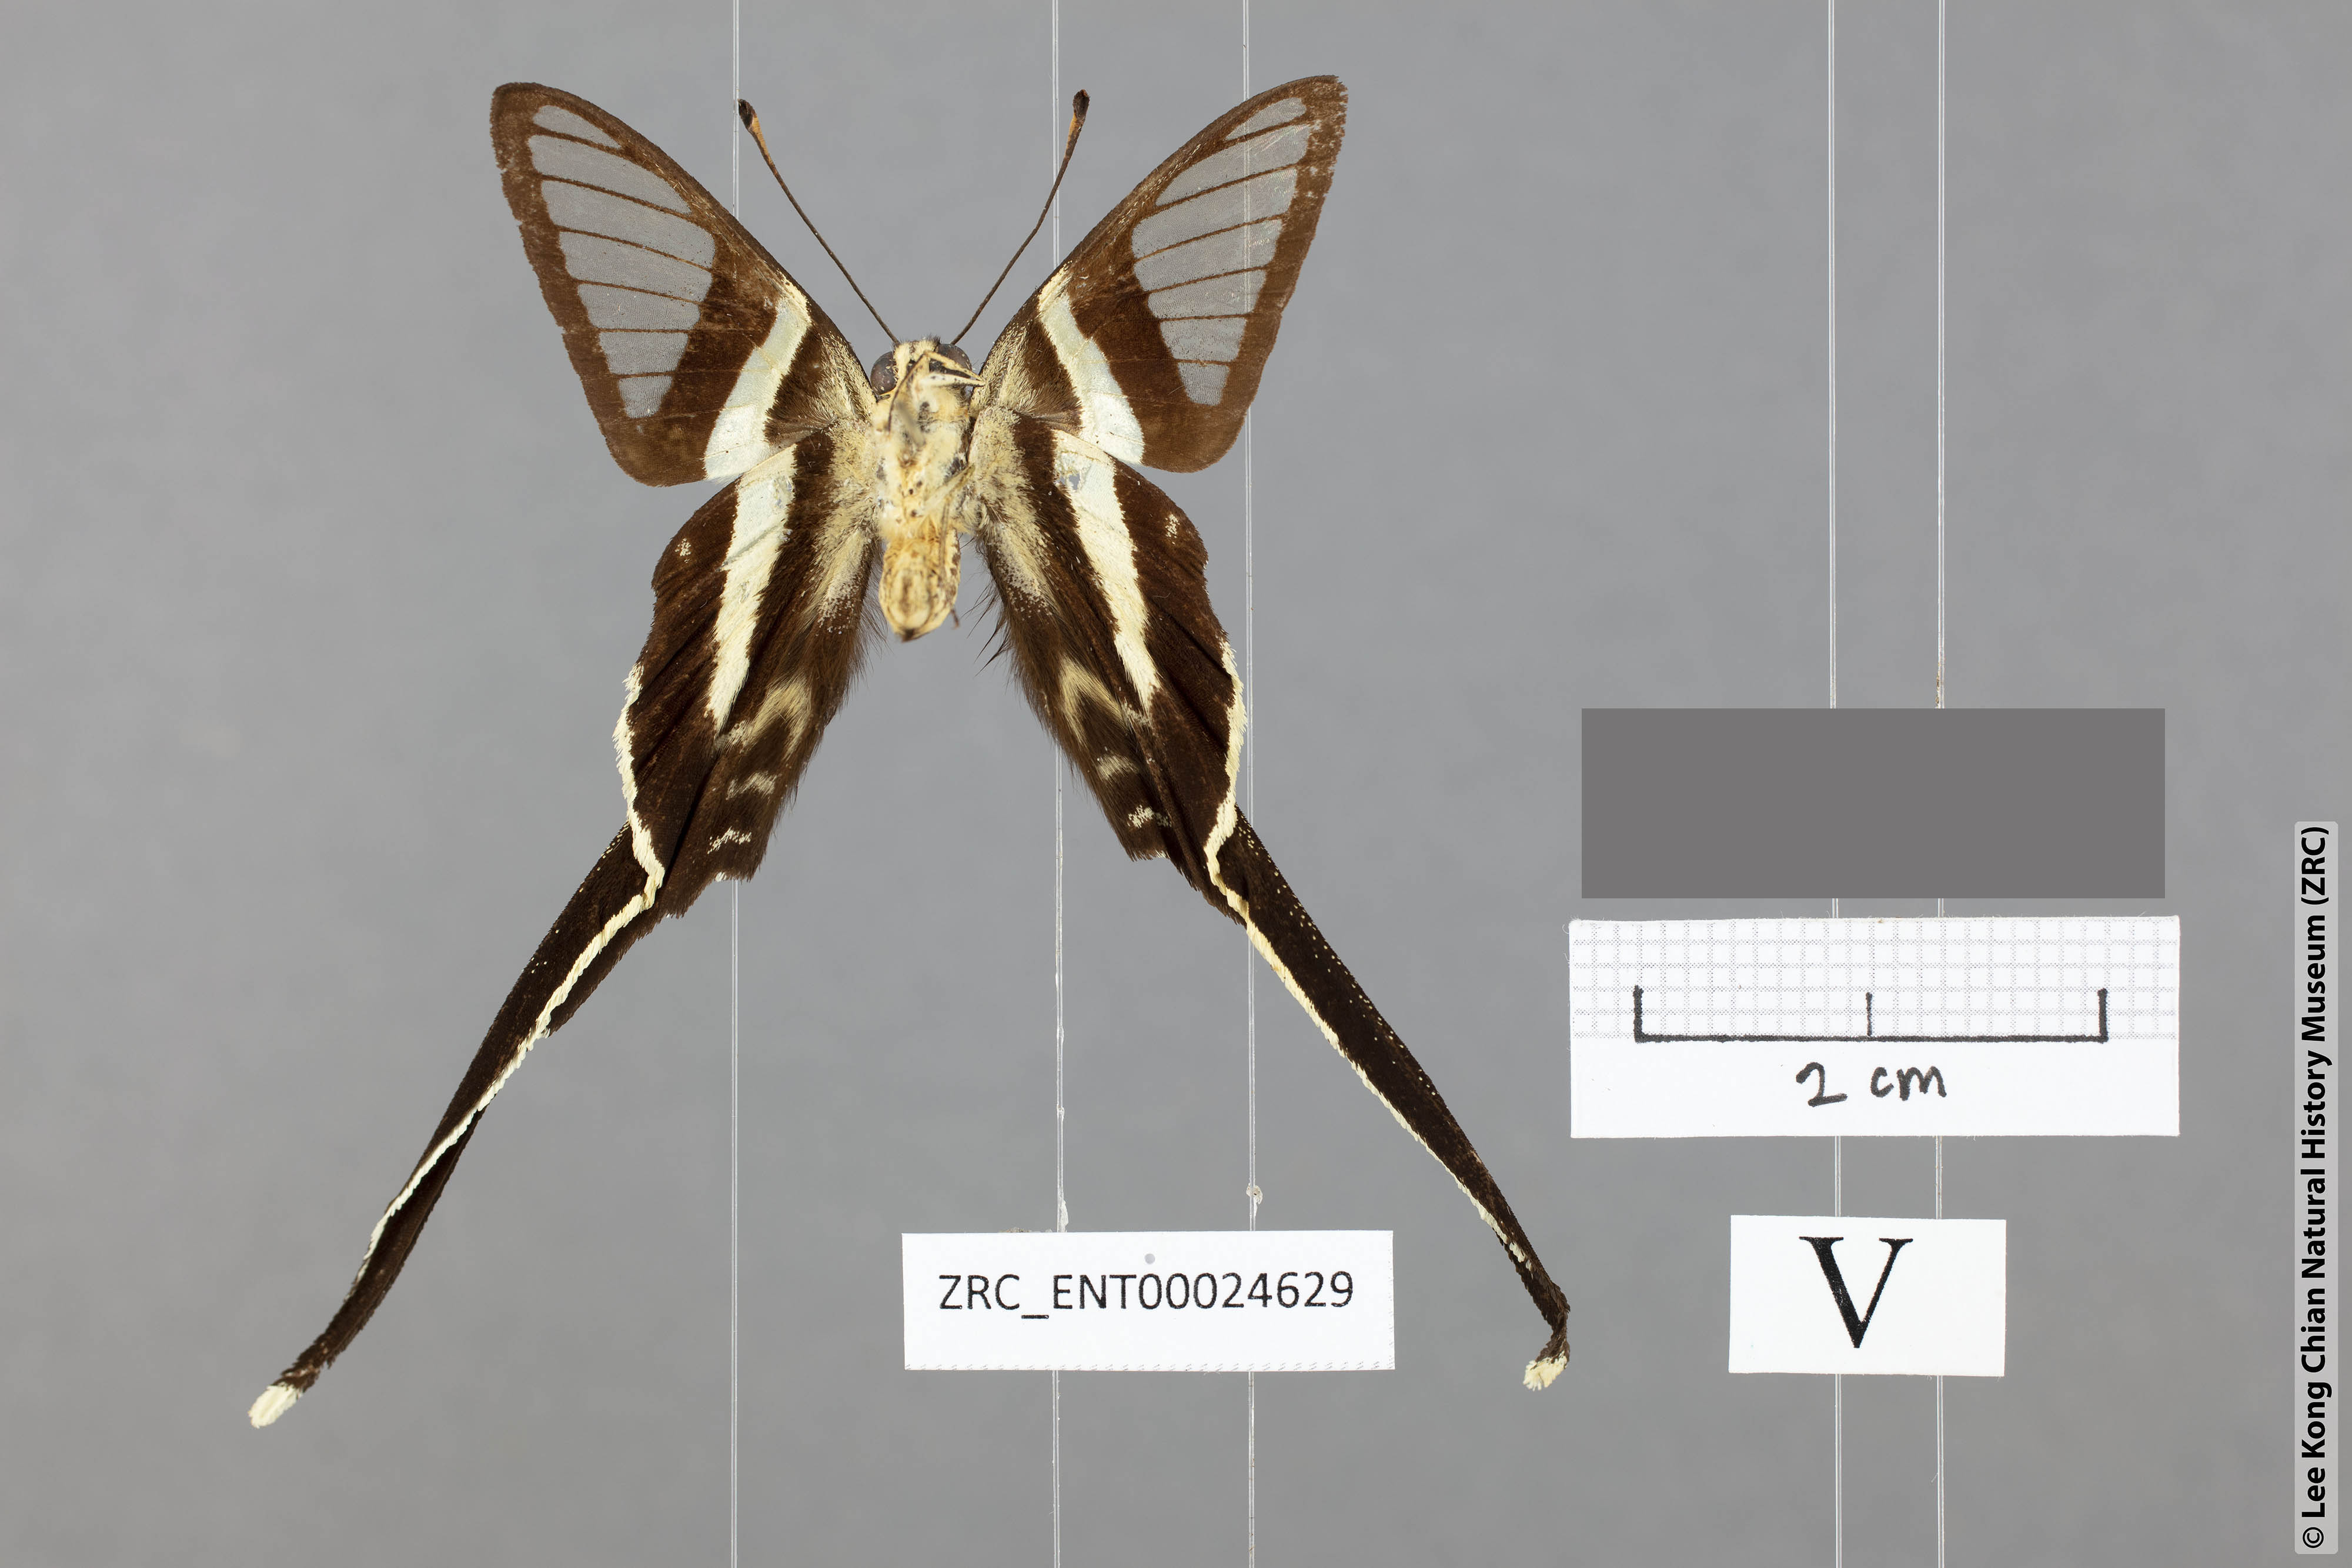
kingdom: Animalia
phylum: Arthropoda
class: Insecta
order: Lepidoptera
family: Papilionidae
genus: Lamproptera
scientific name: Lamproptera meges
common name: Green dragontail
